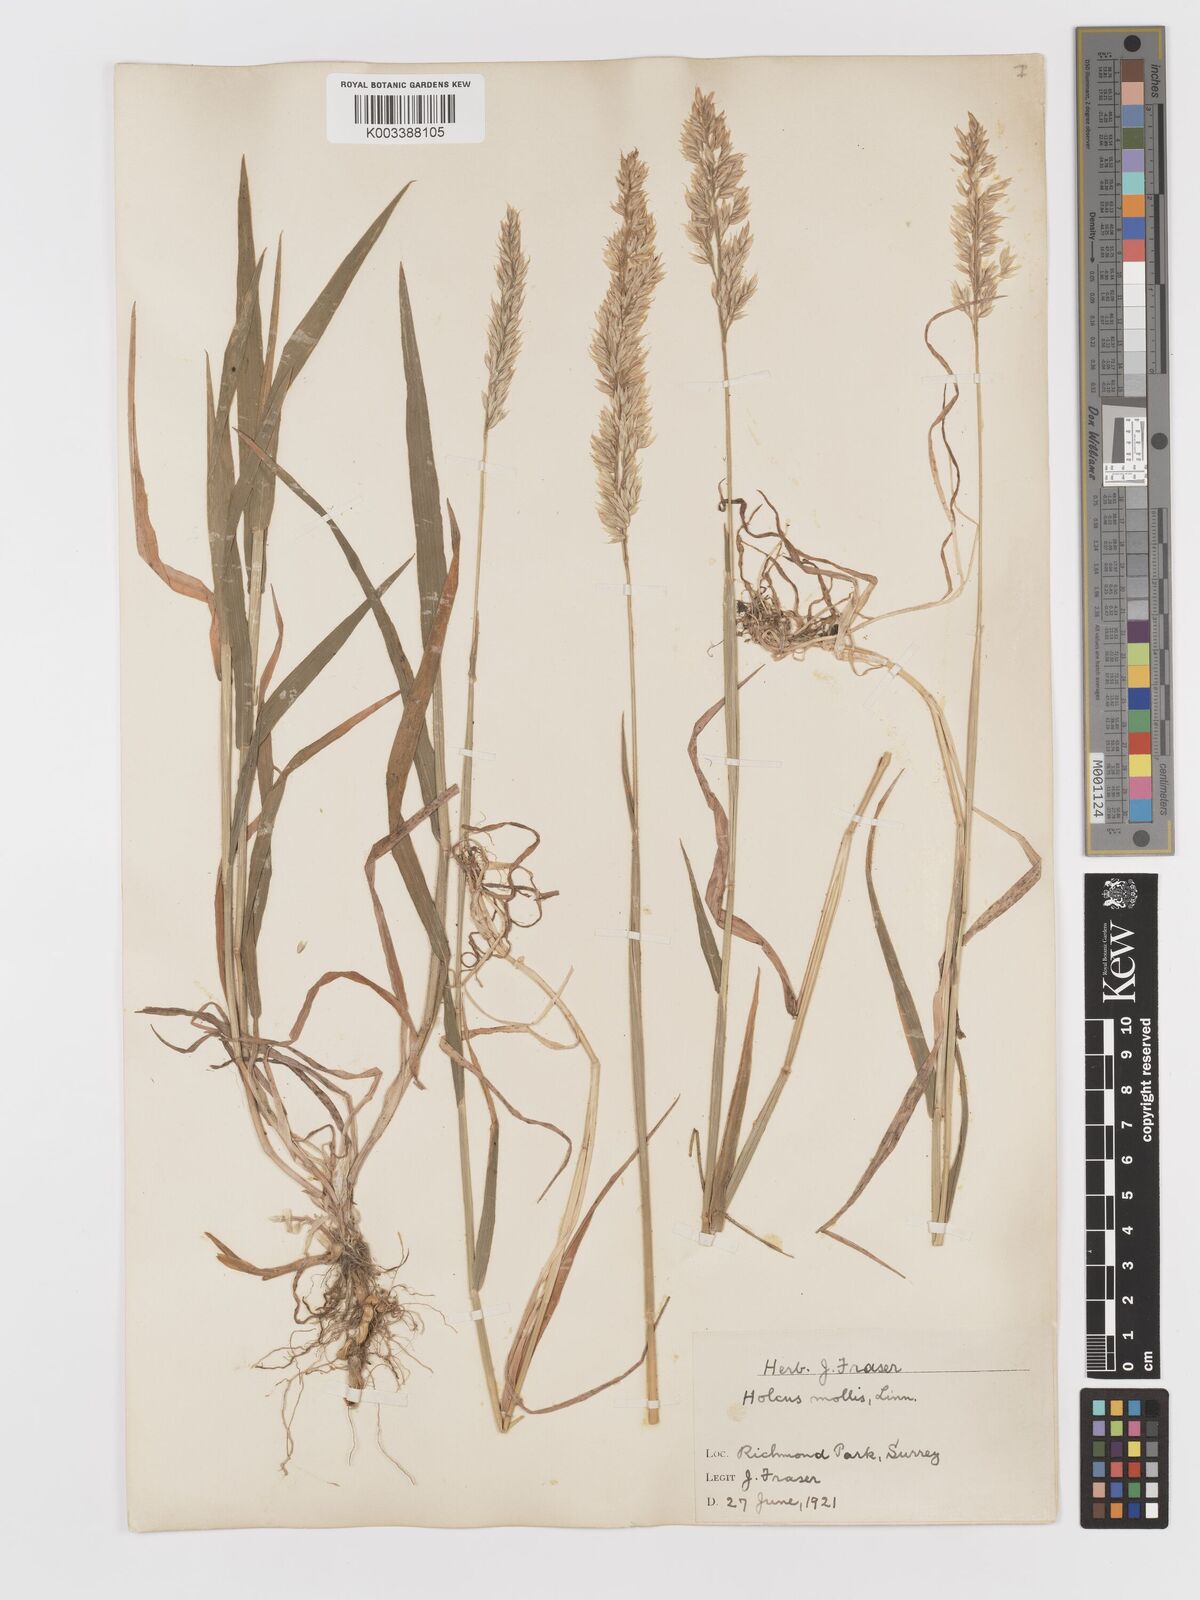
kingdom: Plantae
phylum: Tracheophyta
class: Liliopsida
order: Poales
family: Poaceae
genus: Holcus
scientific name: Holcus mollis
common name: Creeping velvetgrass
